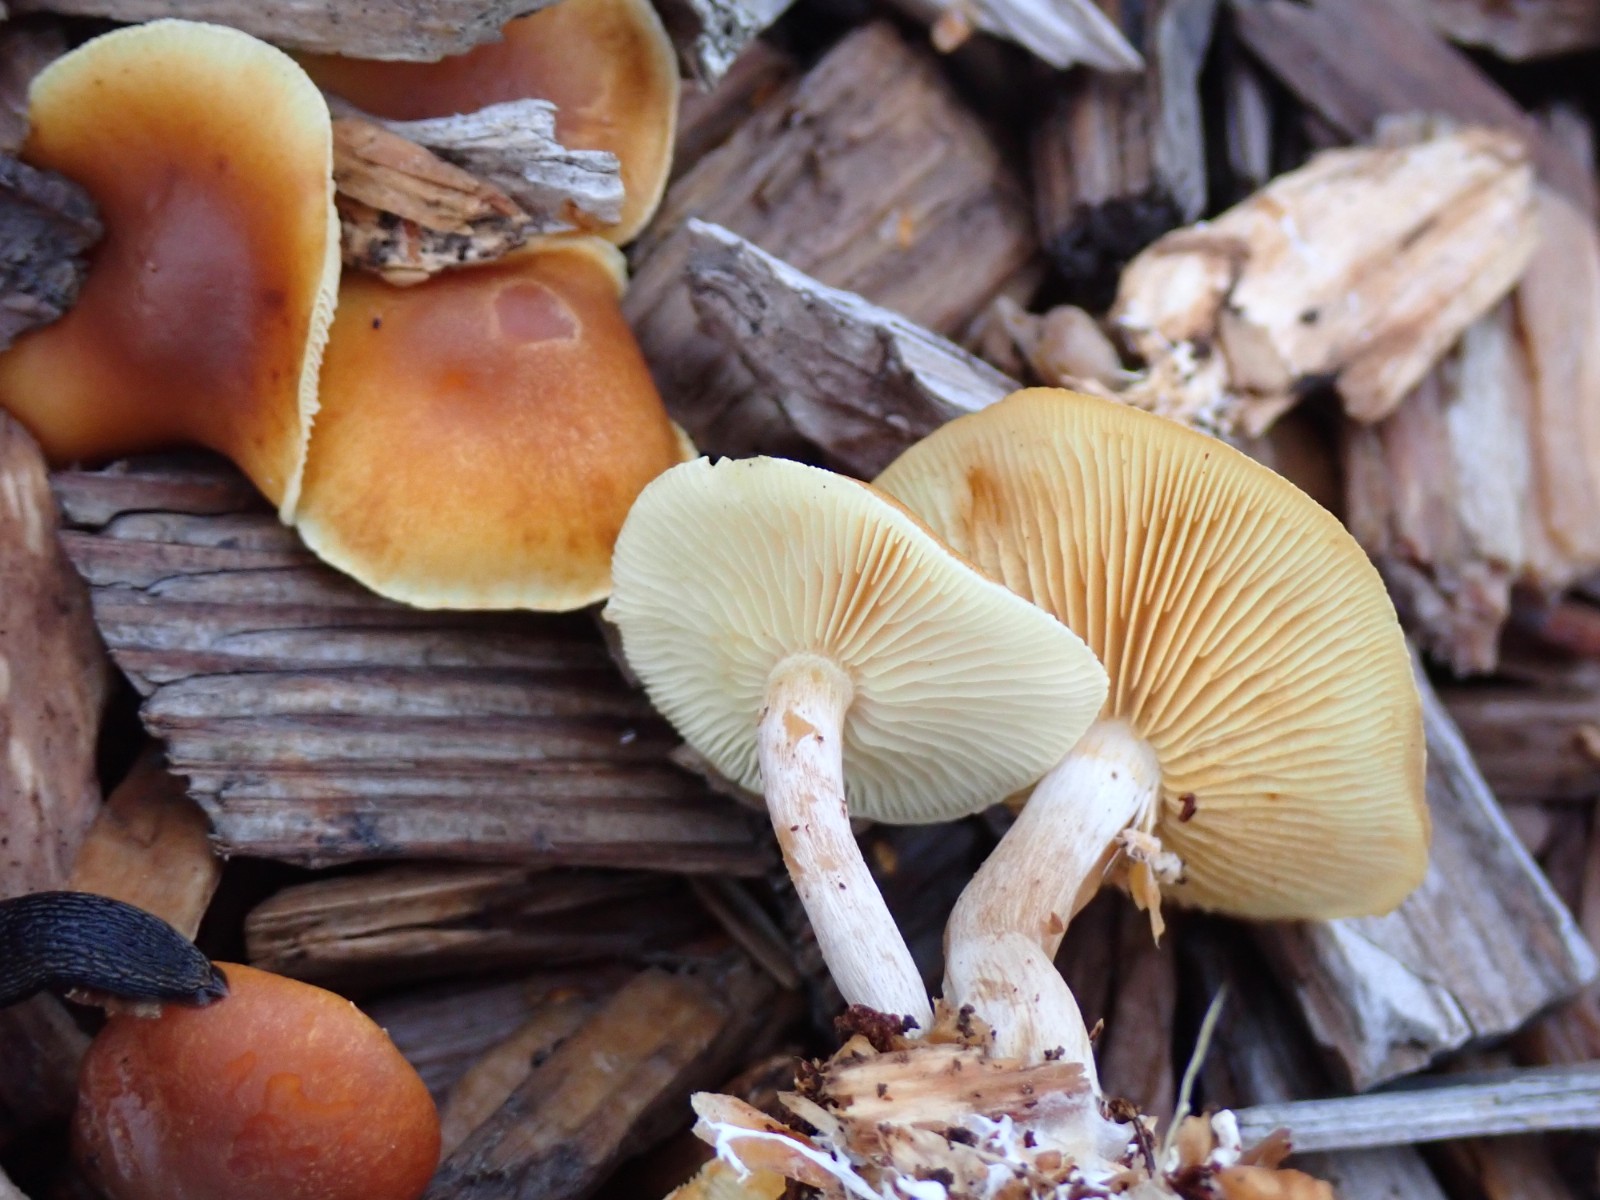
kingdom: Fungi
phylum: Basidiomycota
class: Agaricomycetes
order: Agaricales
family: Hymenogastraceae
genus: Gymnopilus
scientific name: Gymnopilus penetrans
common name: plettet flammehat
